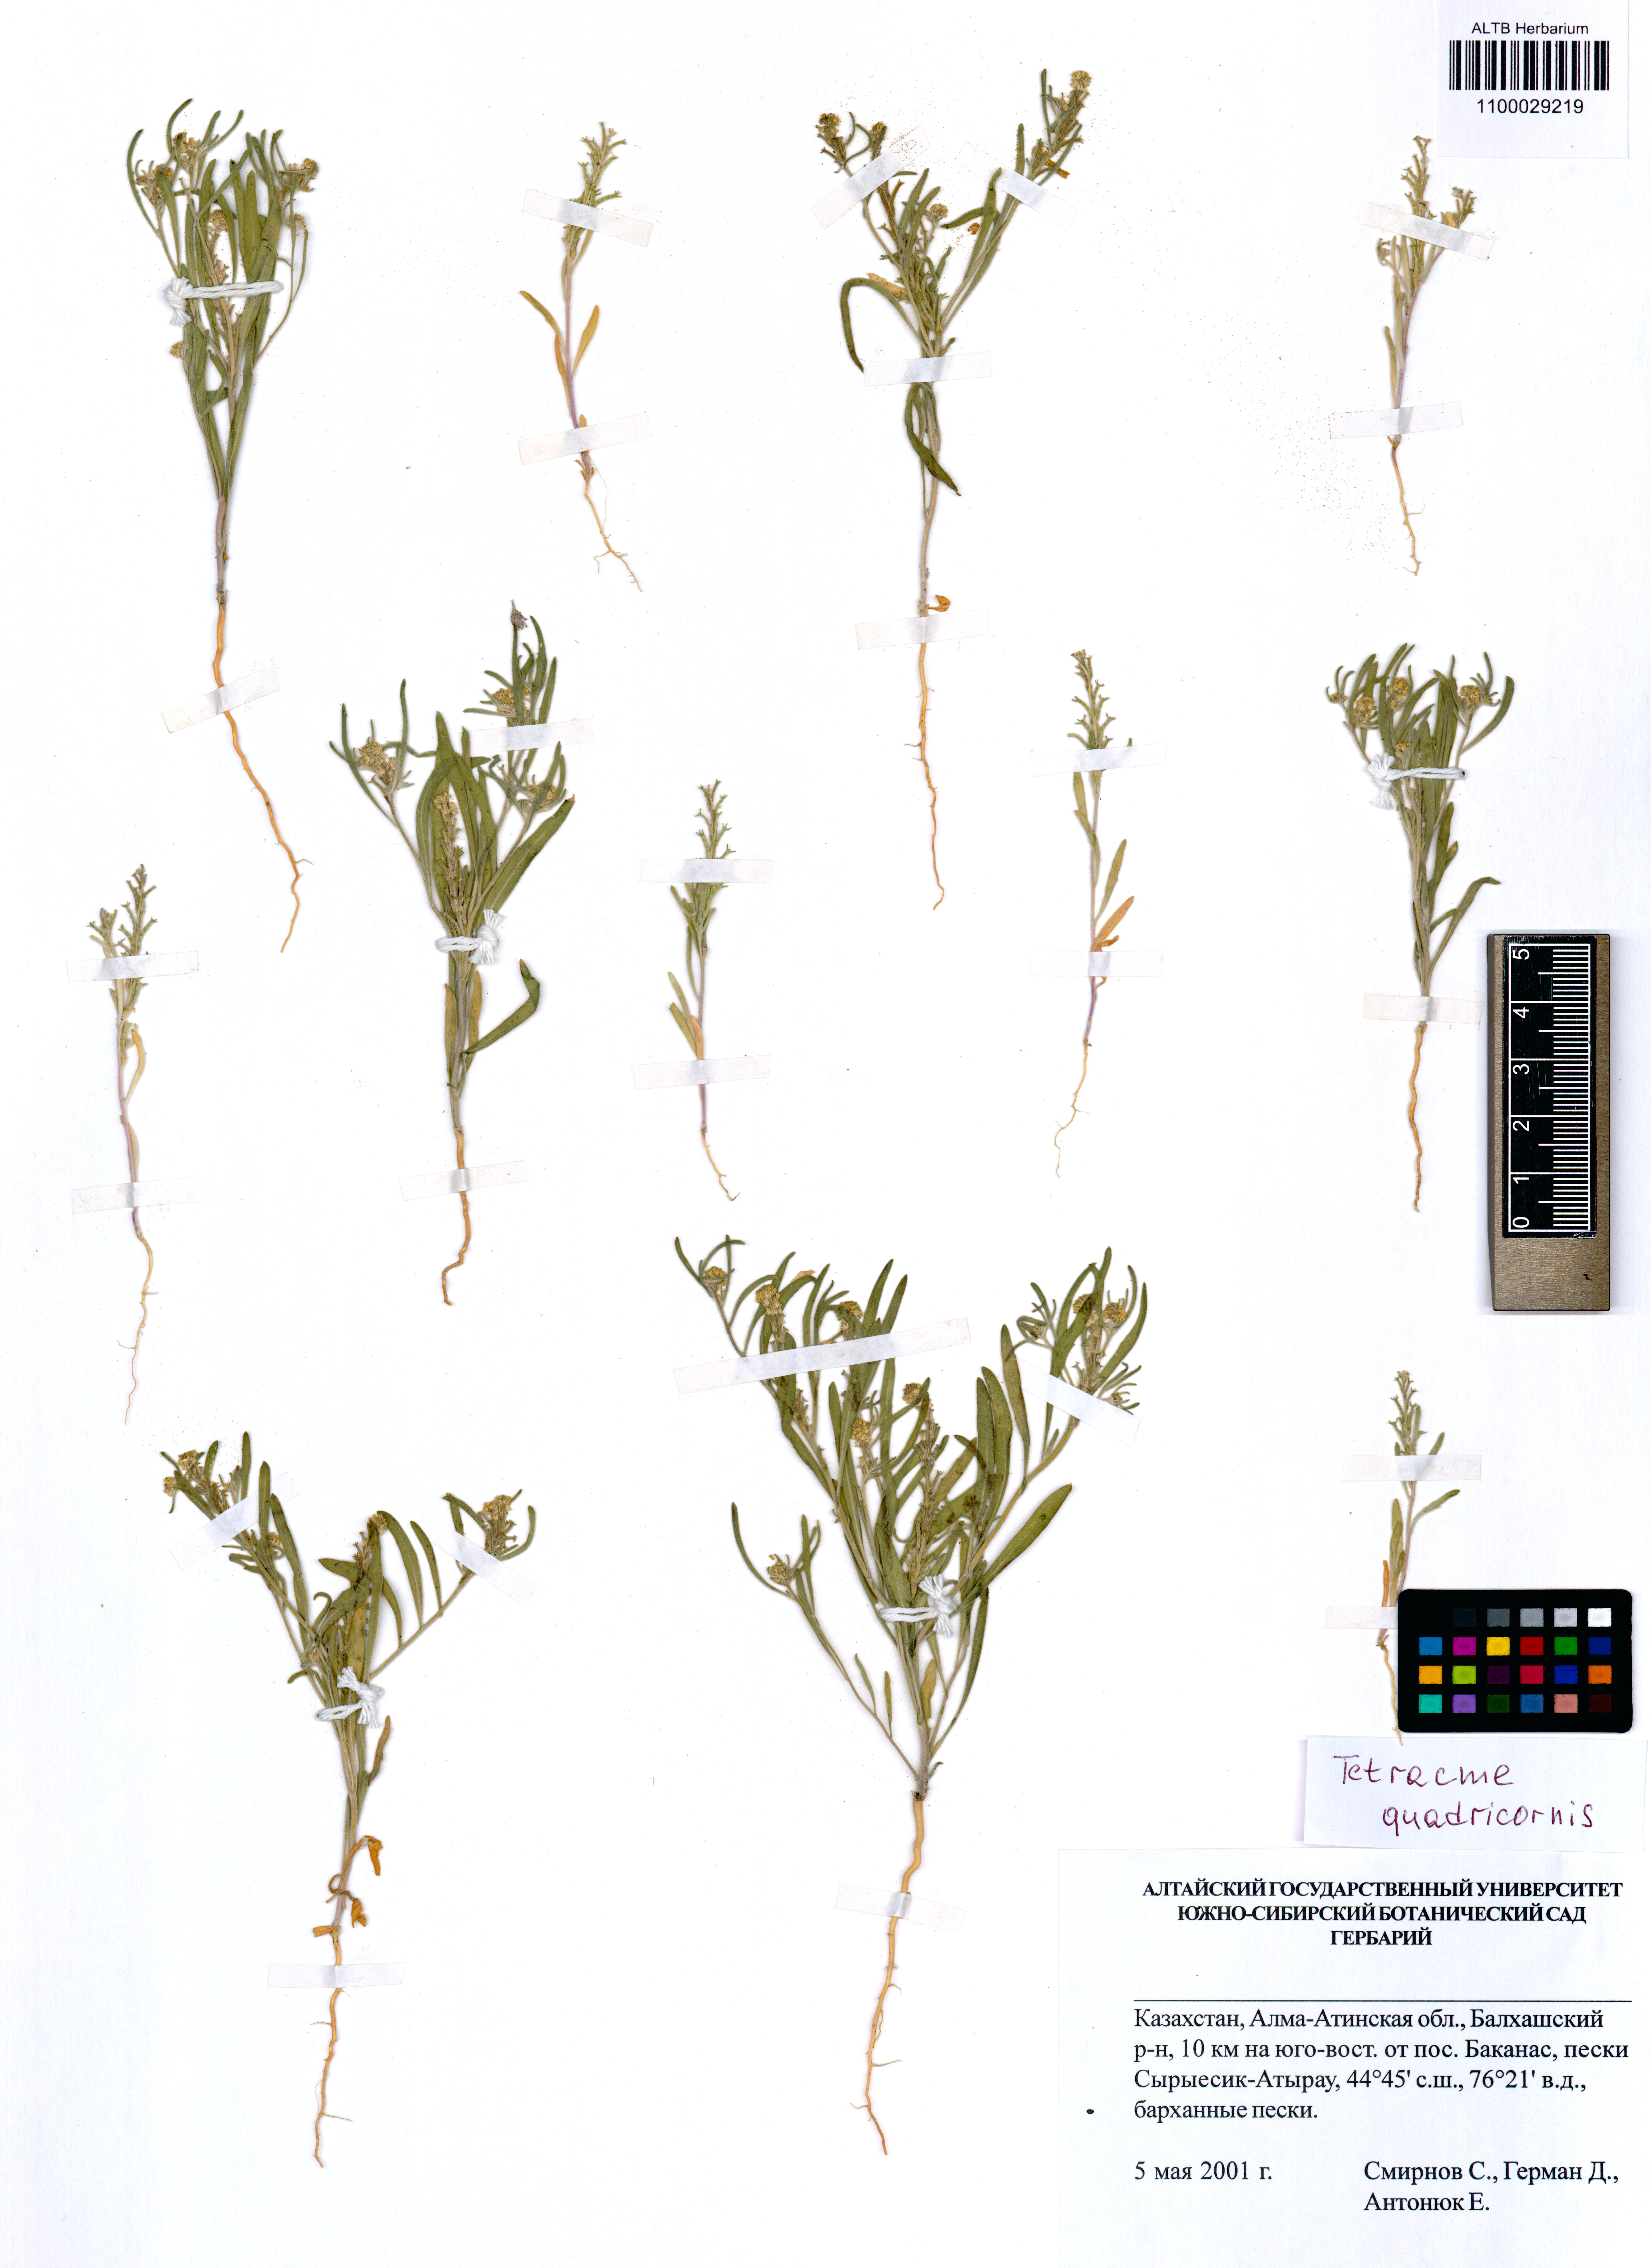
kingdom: Plantae
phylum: Tracheophyta
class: Magnoliopsida
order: Brassicales
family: Brassicaceae
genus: Tetracme
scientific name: Tetracme quadricornis
